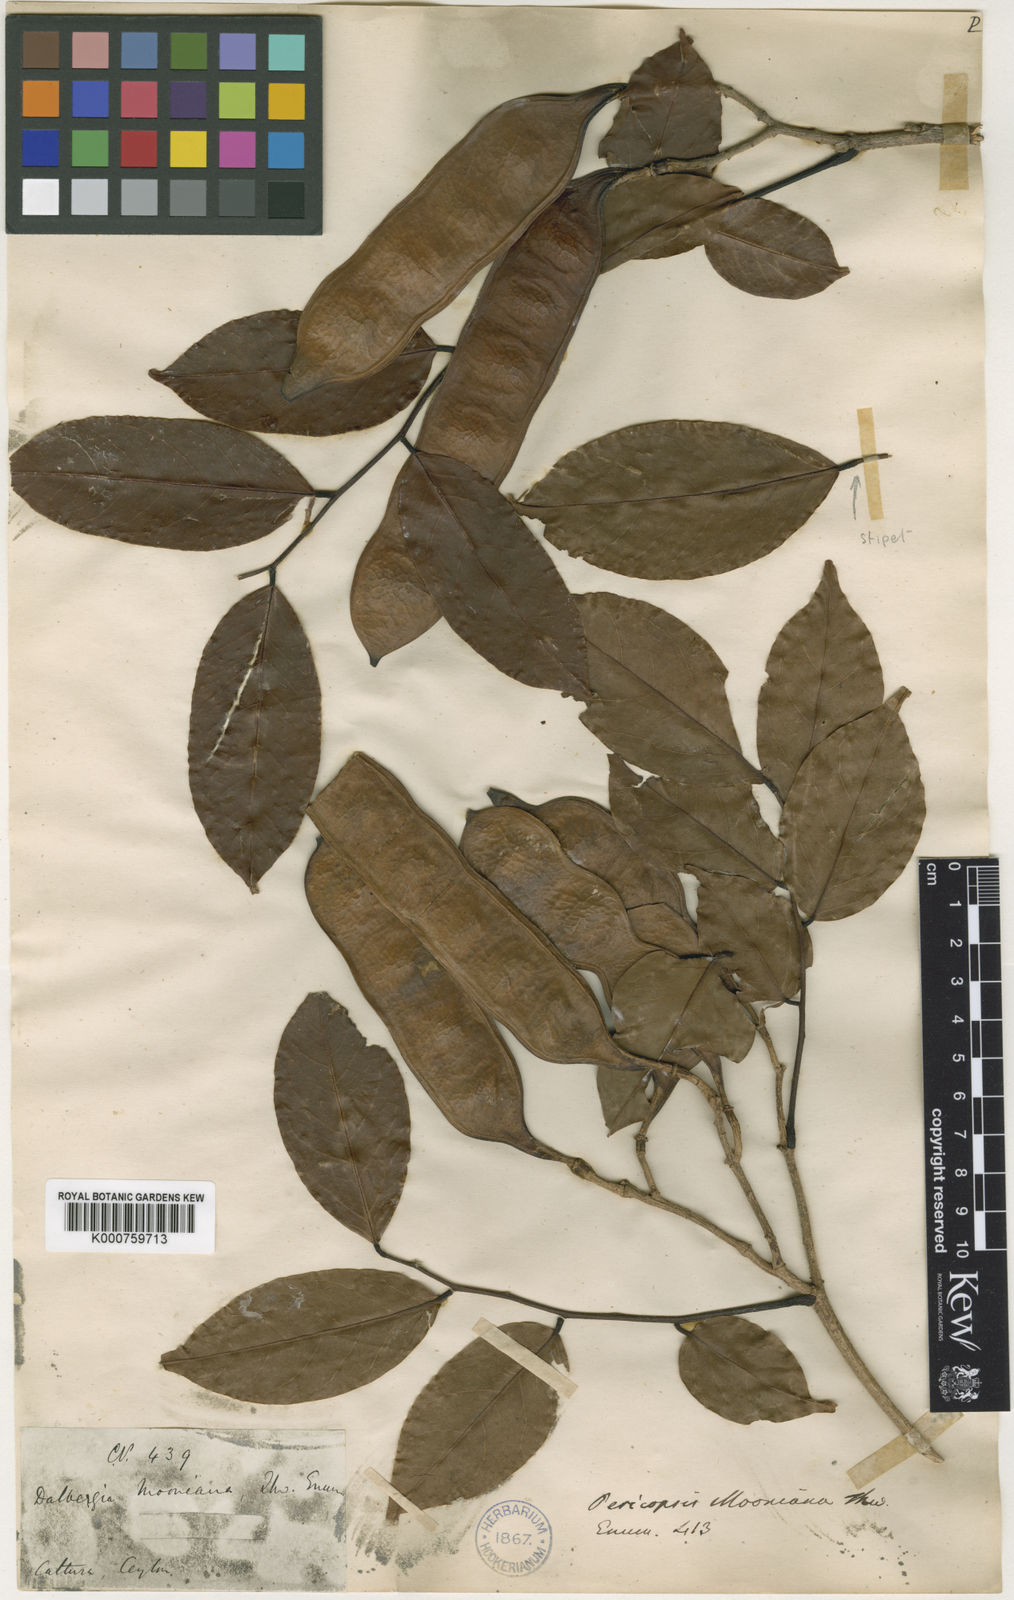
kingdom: Plantae
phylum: Tracheophyta
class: Magnoliopsida
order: Fabales
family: Fabaceae
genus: Pericopsis
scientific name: Pericopsis mooniana
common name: Nandu wood
